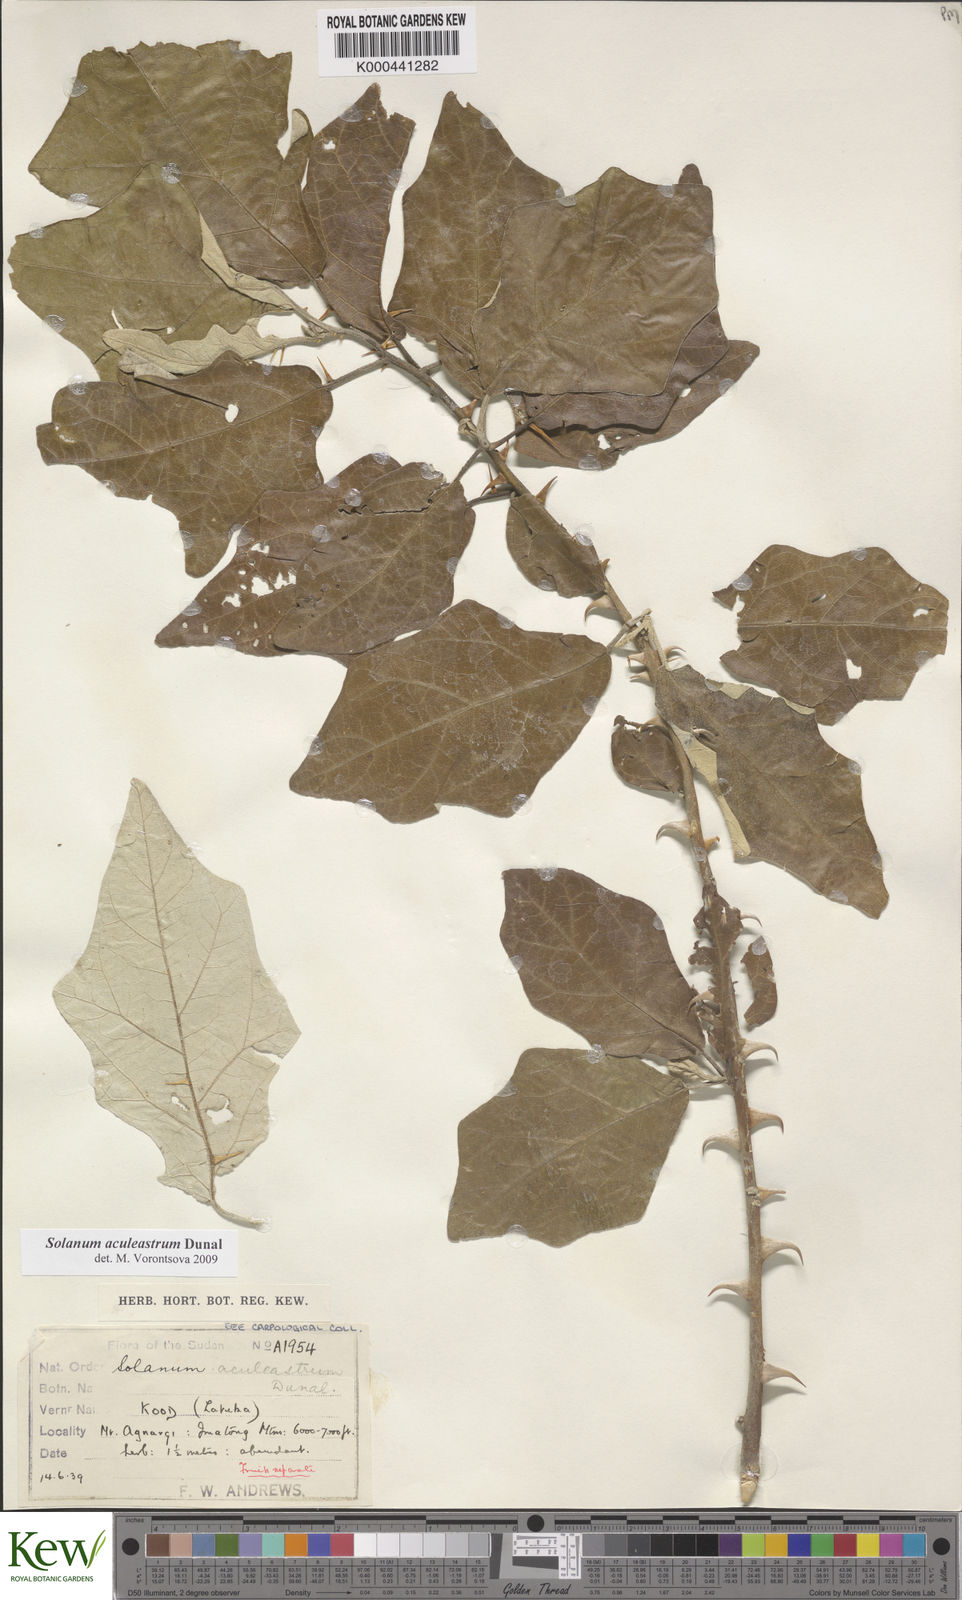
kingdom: Plantae
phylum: Tracheophyta
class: Magnoliopsida
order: Solanales
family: Solanaceae
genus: Solanum
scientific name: Solanum aculeastrum
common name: Goat bitter-apple
